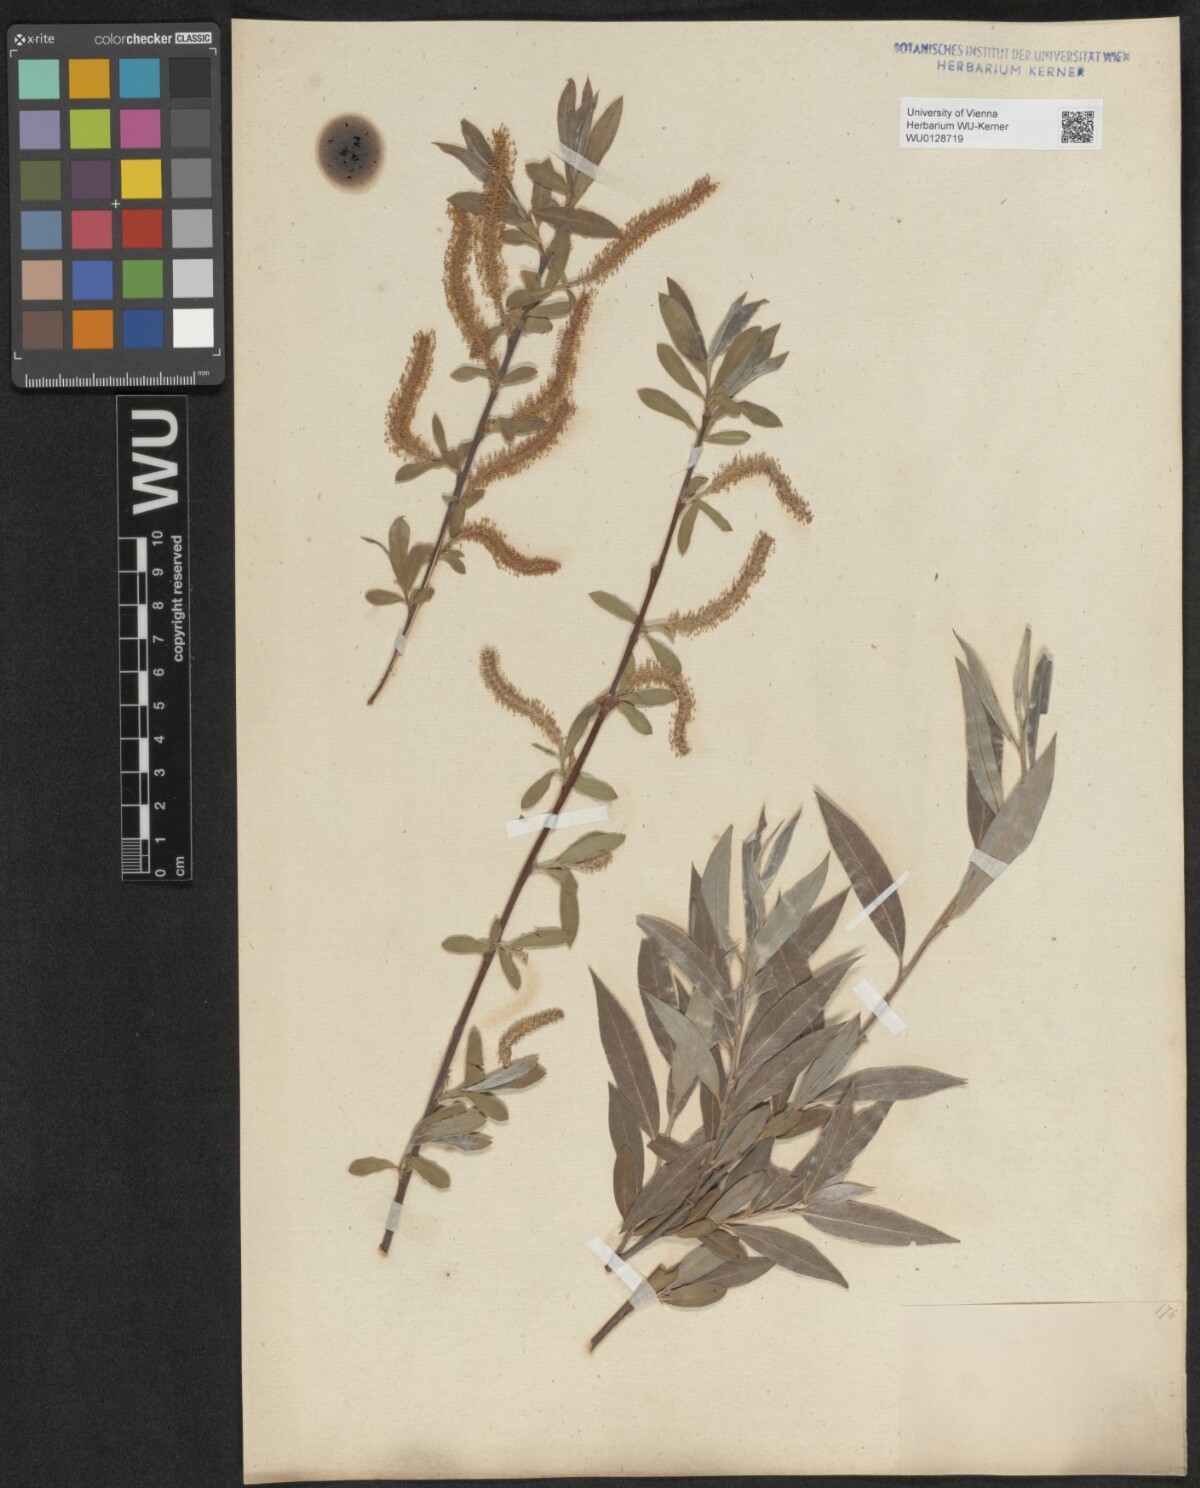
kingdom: Plantae
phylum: Tracheophyta
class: Magnoliopsida
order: Malpighiales
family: Salicaceae
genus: Salix
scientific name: Salix alba
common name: White willow
